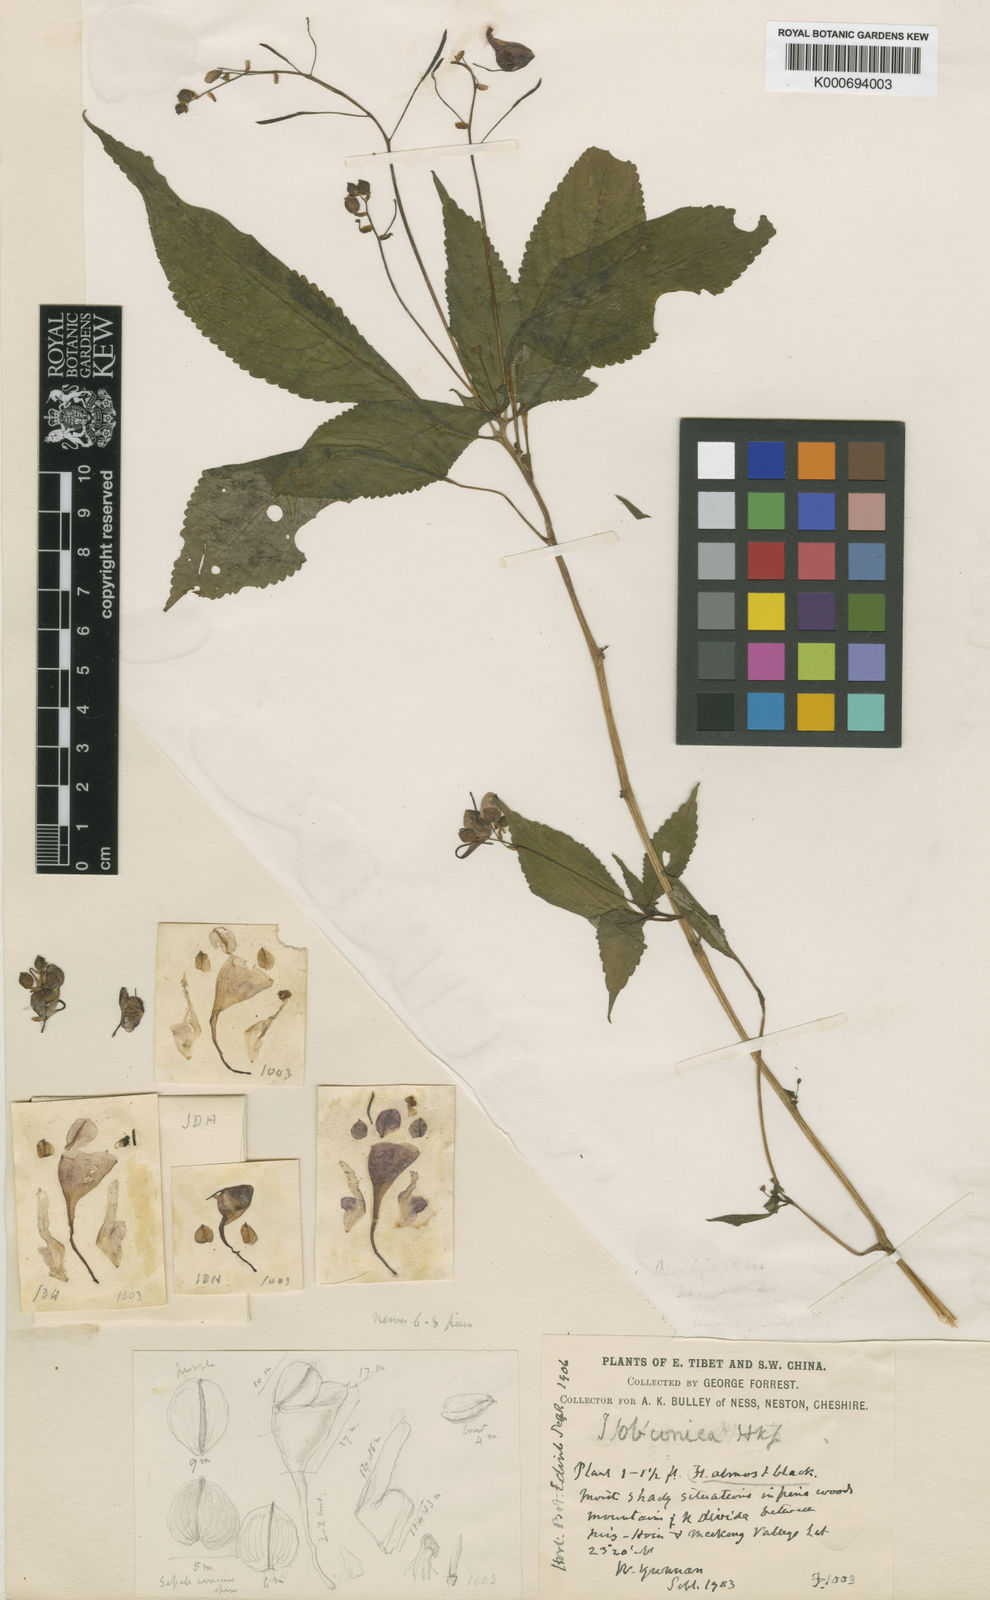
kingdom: Plantae
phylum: Tracheophyta
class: Magnoliopsida
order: Ericales
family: Balsaminaceae
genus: Impatiens
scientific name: Impatiens
